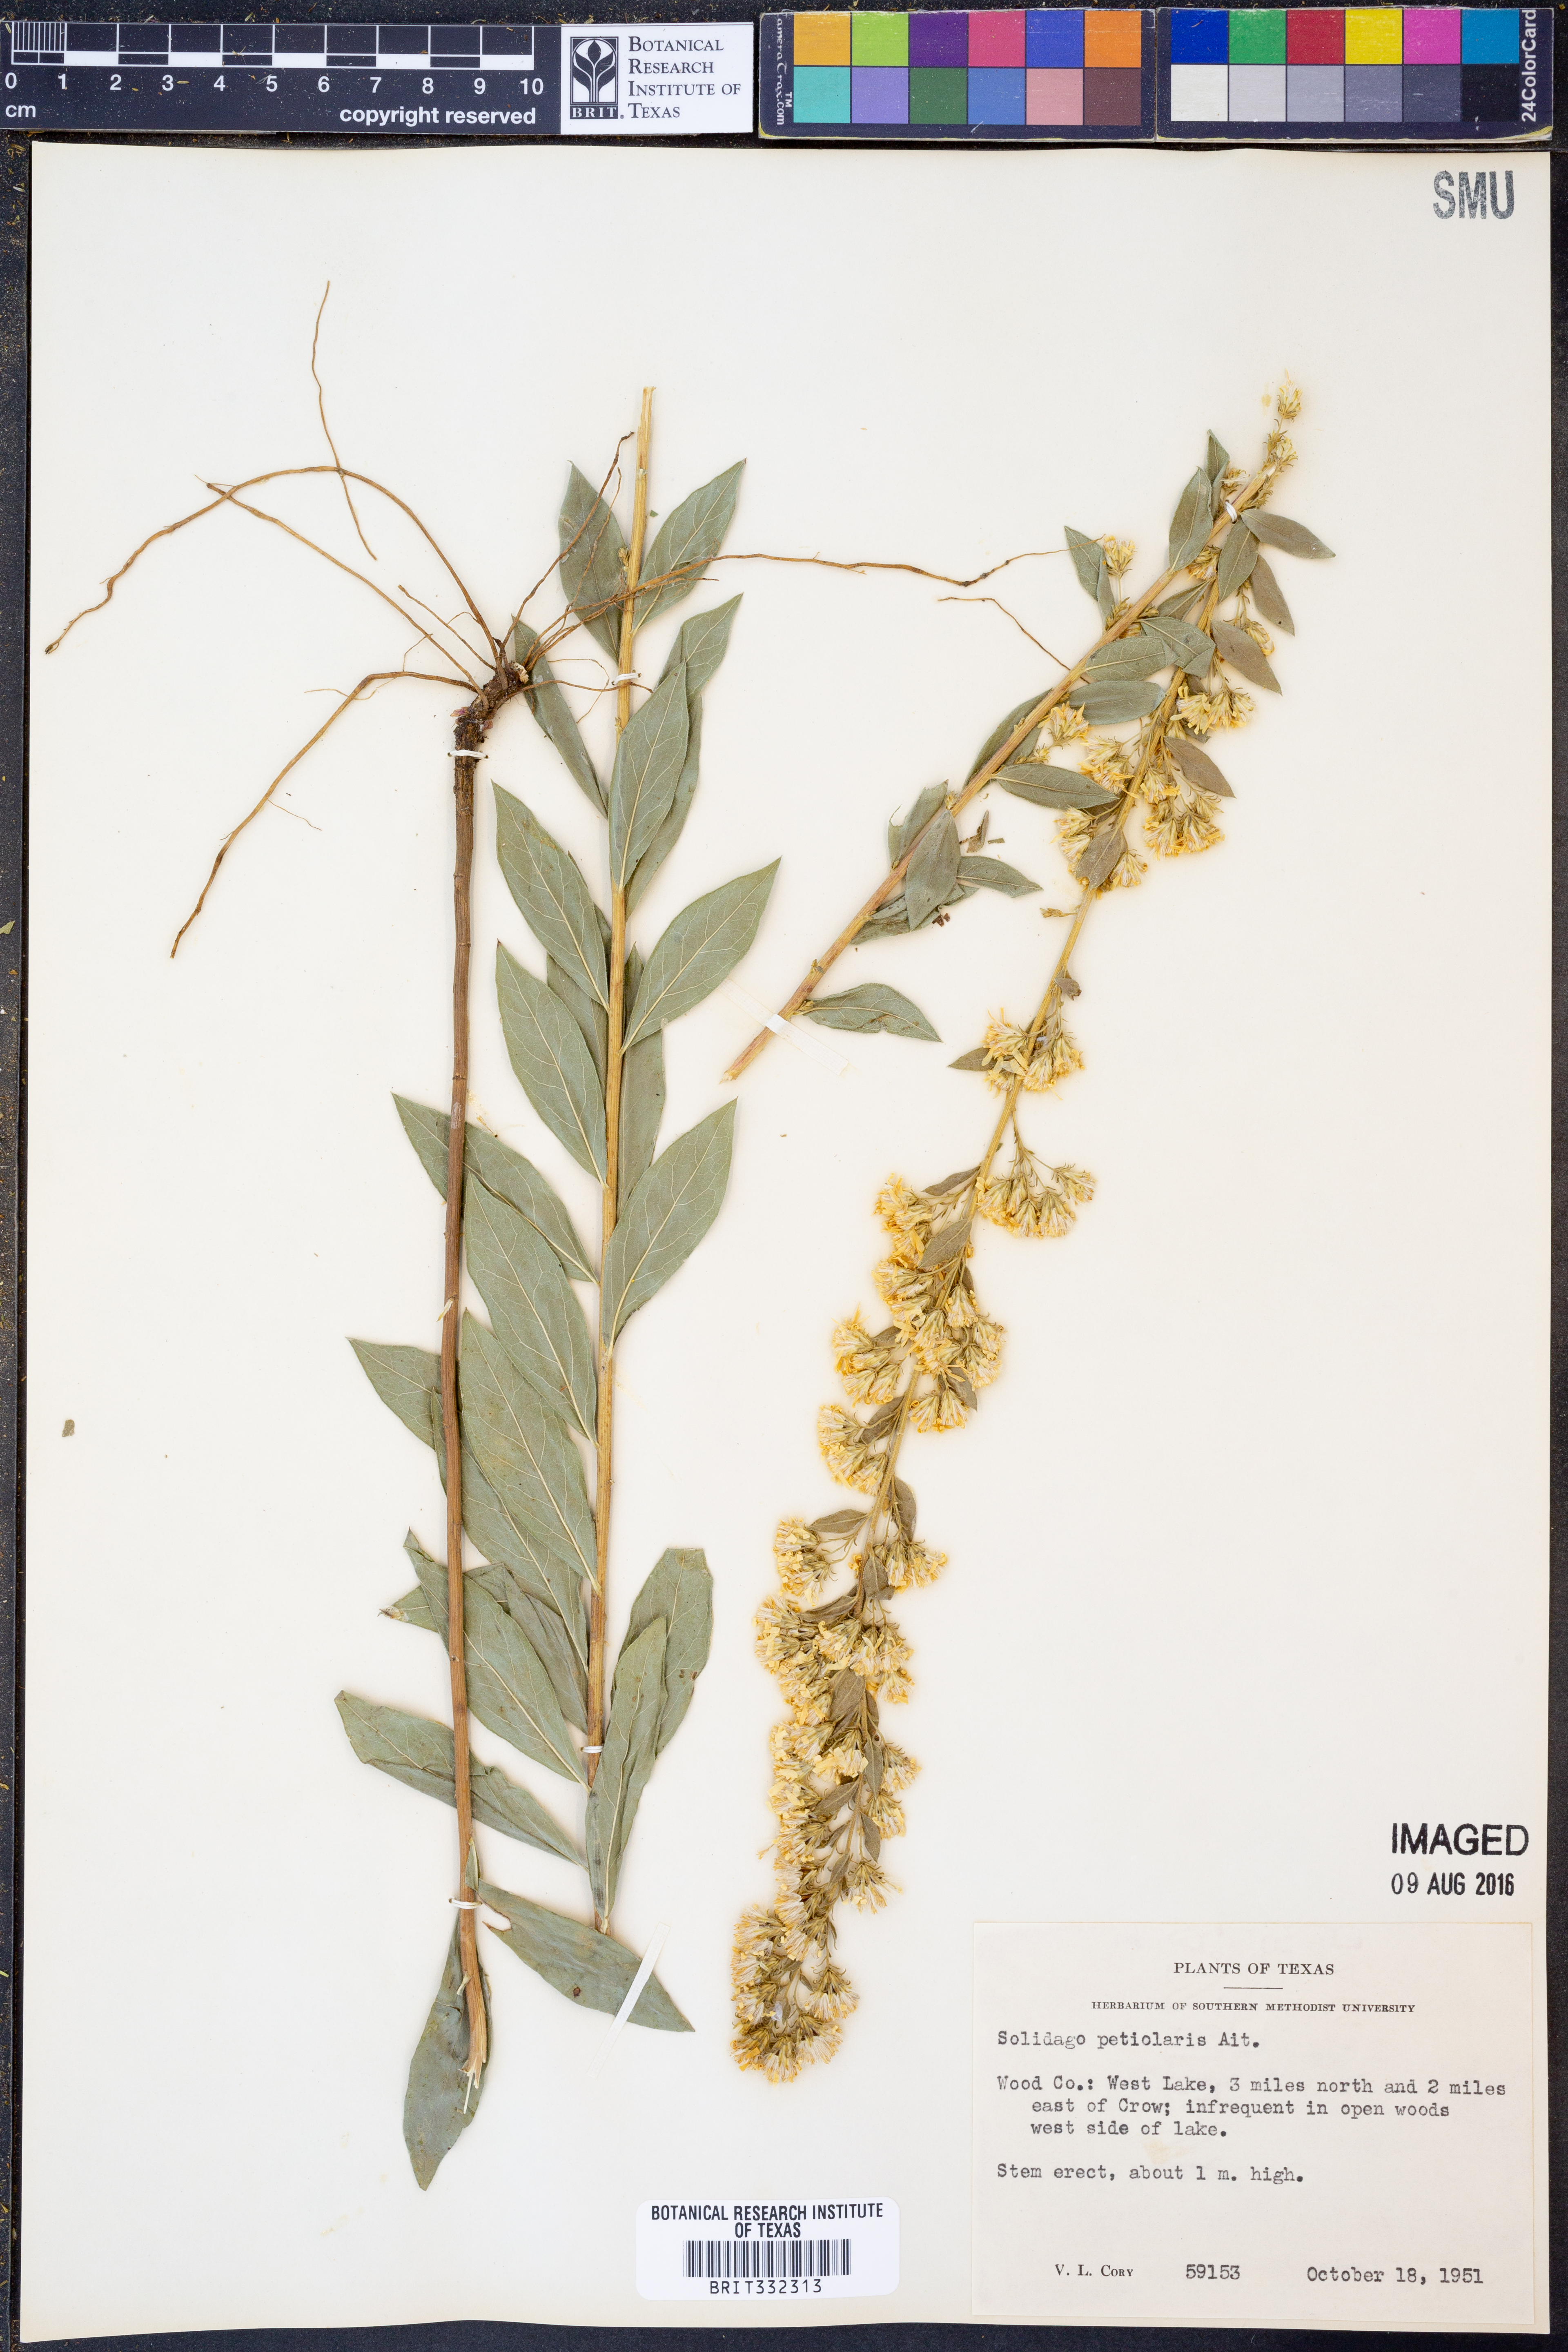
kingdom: Plantae
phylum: Tracheophyta
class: Magnoliopsida
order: Asterales
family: Asteraceae
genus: Solidago
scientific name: Solidago petiolaris
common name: Downy ragged goldenrod
